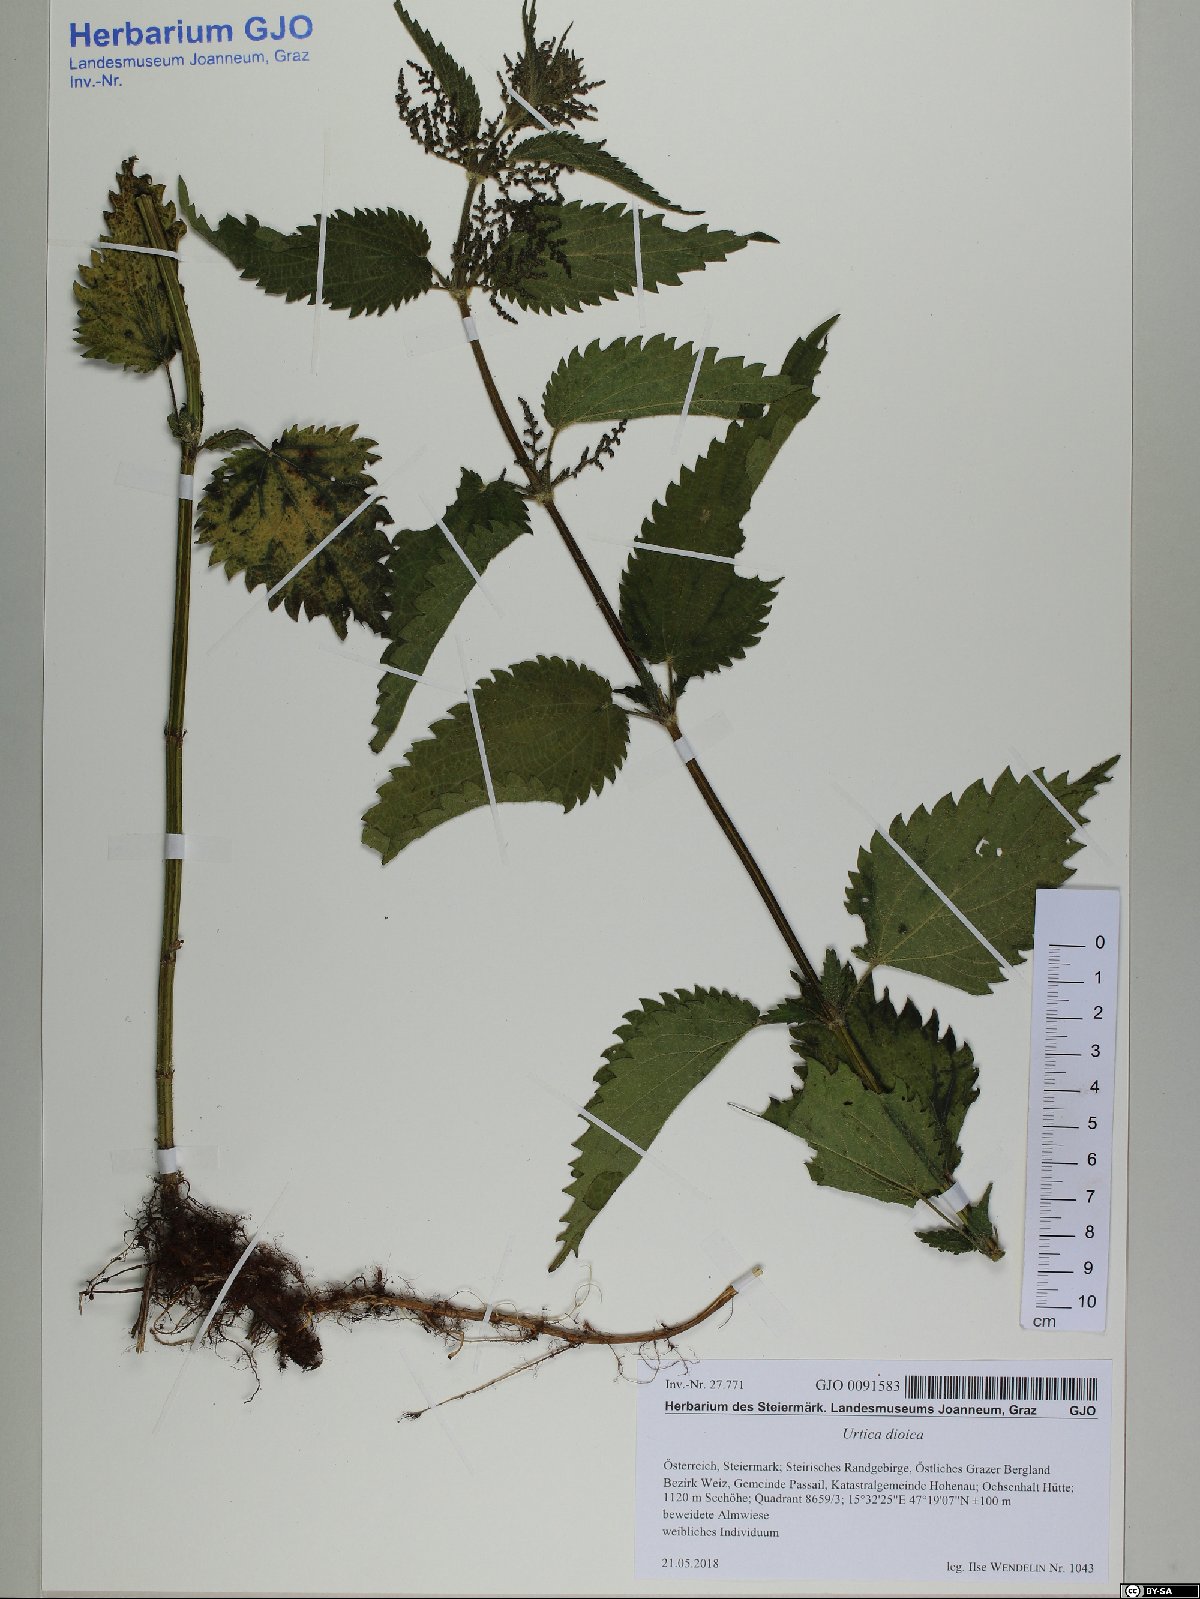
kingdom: Plantae
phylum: Tracheophyta
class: Magnoliopsida
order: Rosales
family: Urticaceae
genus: Urtica
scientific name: Urtica dioica
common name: Common nettle
